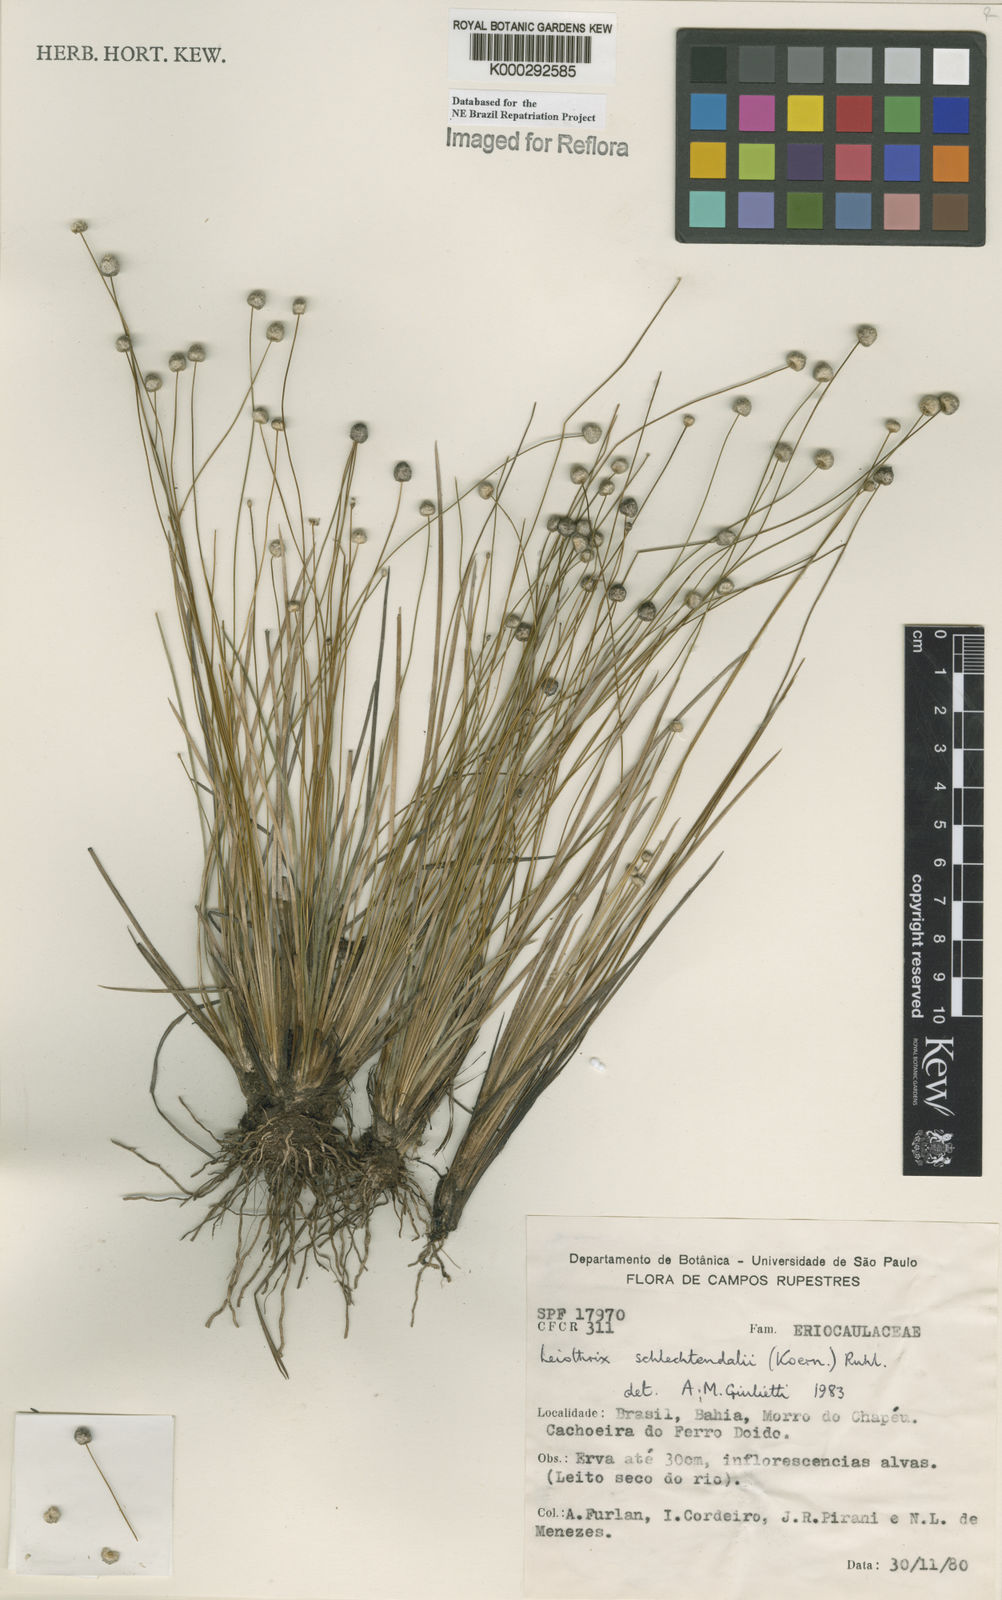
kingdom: Plantae
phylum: Tracheophyta
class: Liliopsida
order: Poales
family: Eriocaulaceae
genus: Leiothrix
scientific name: Leiothrix schlechtendalii
